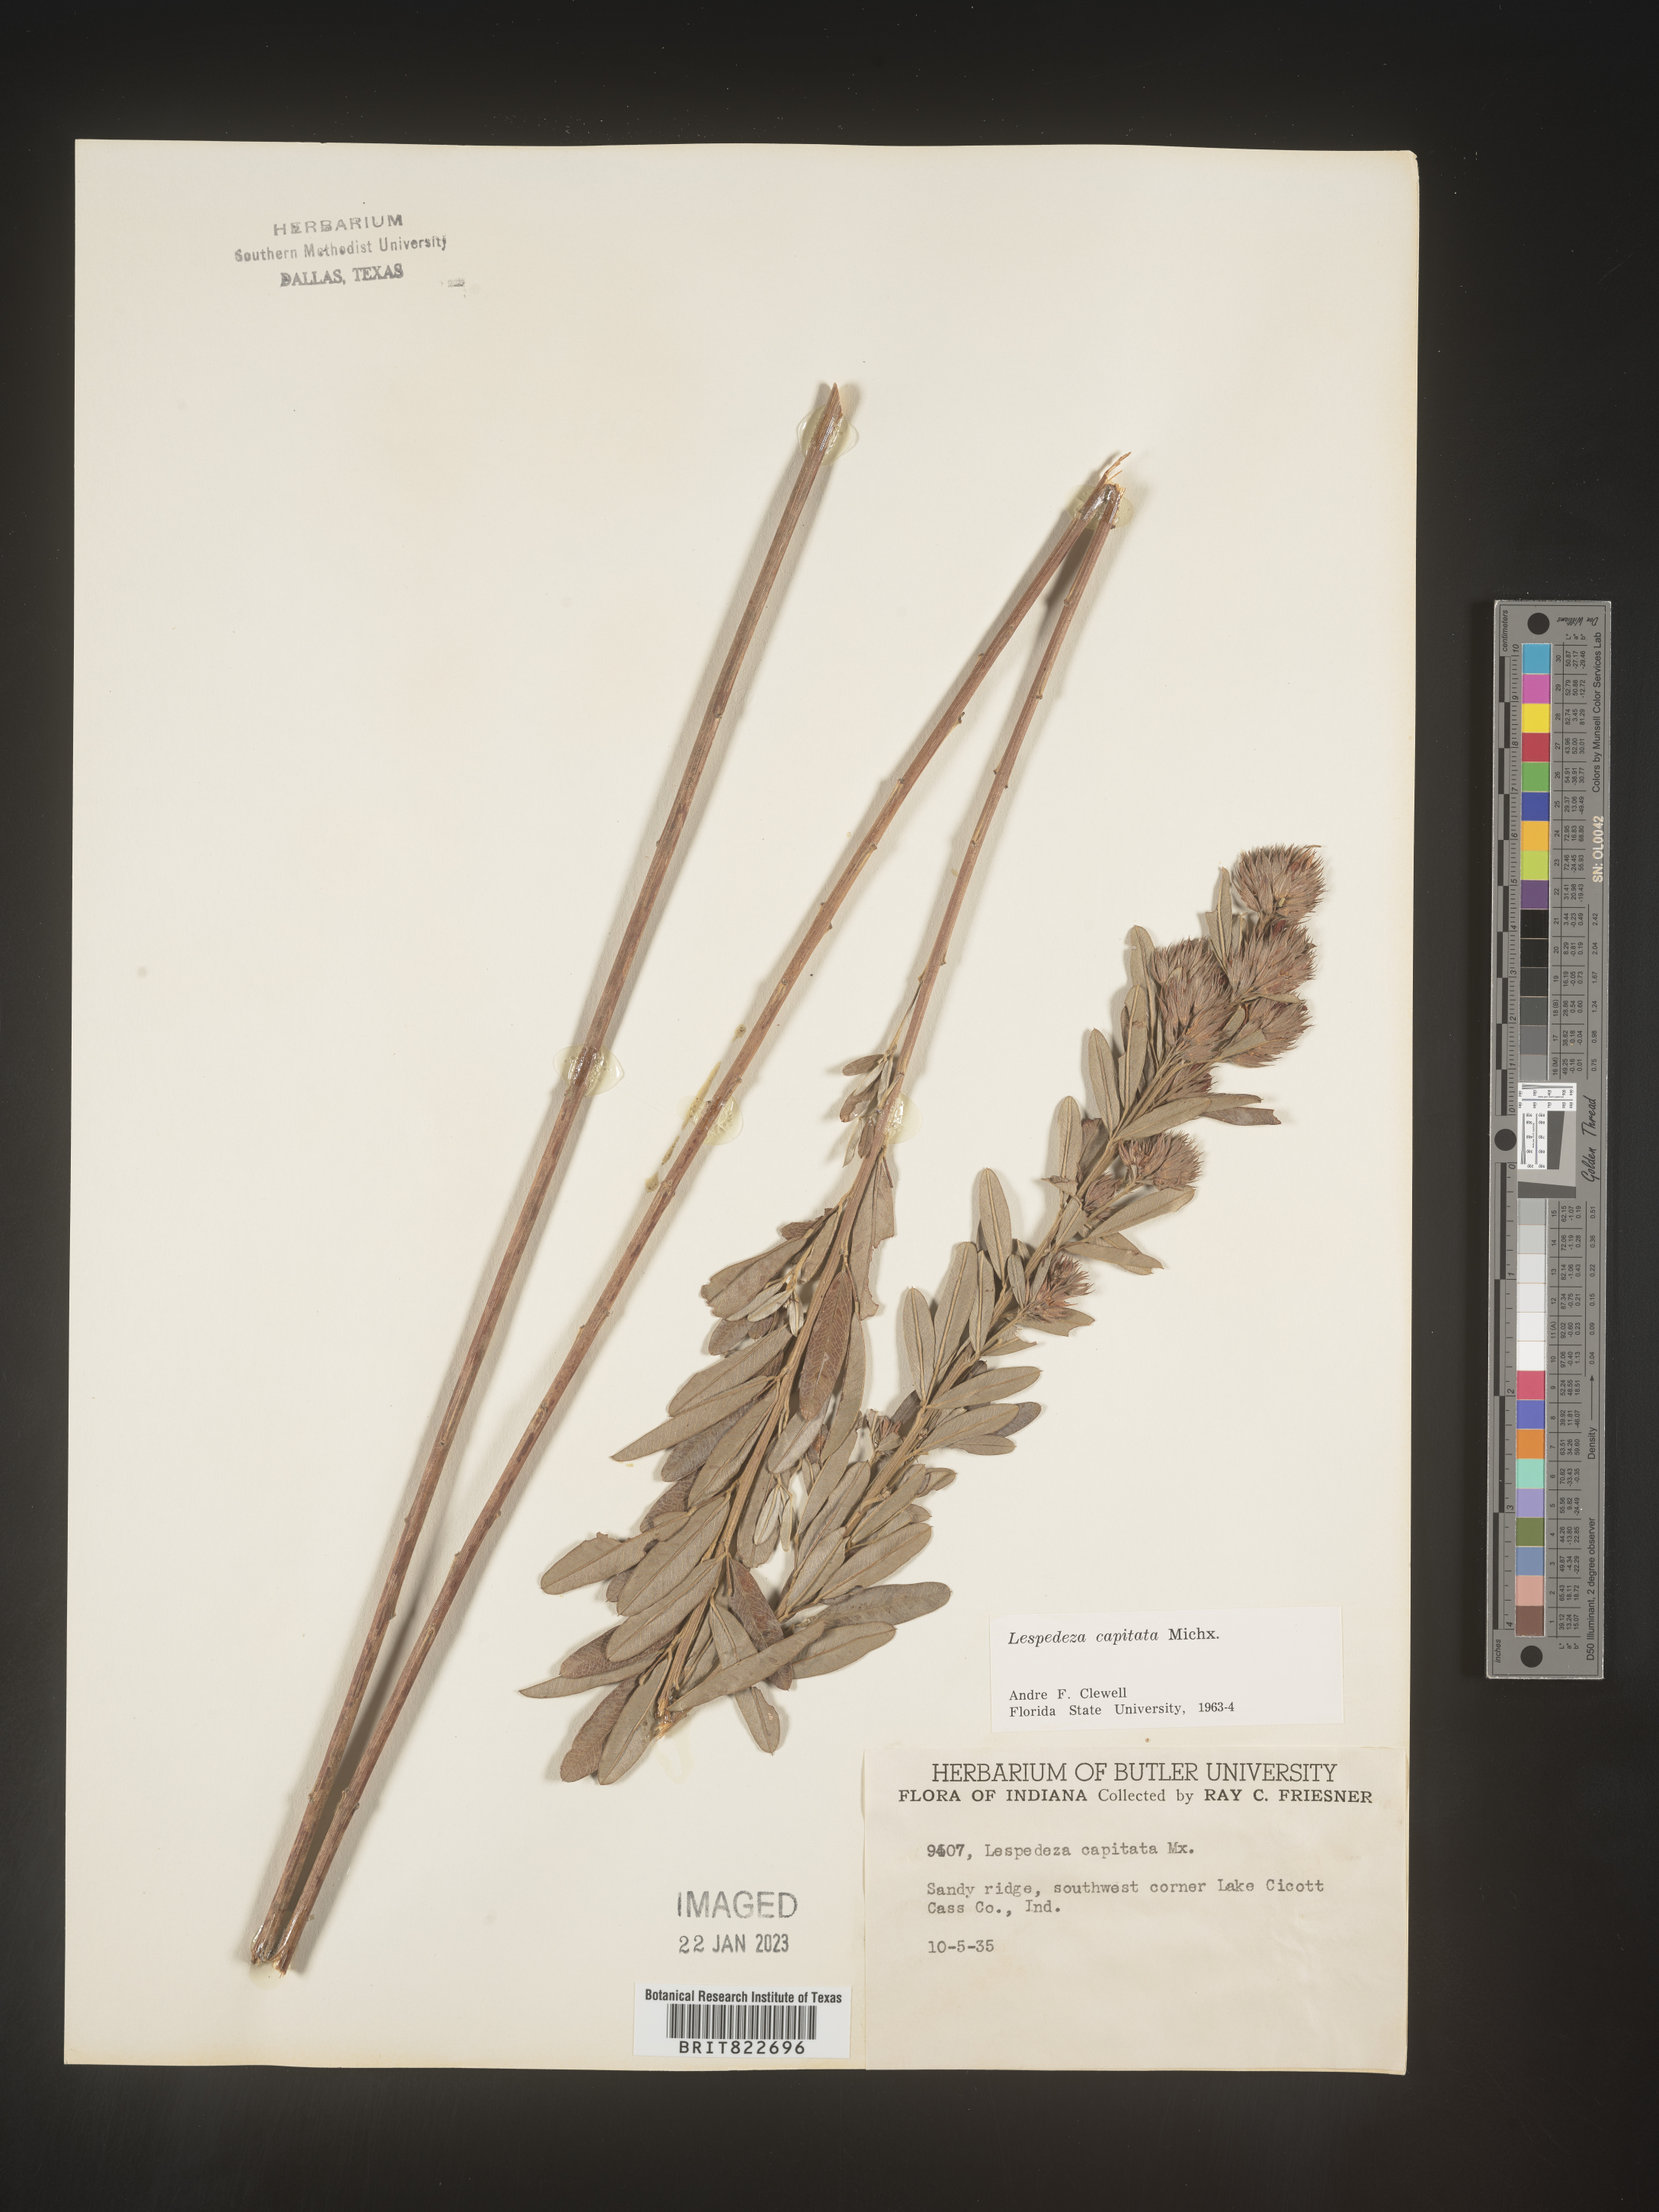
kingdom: Plantae
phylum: Tracheophyta
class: Magnoliopsida
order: Fabales
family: Fabaceae
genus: Lespedeza
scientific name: Lespedeza capitata
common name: Dusty clover
